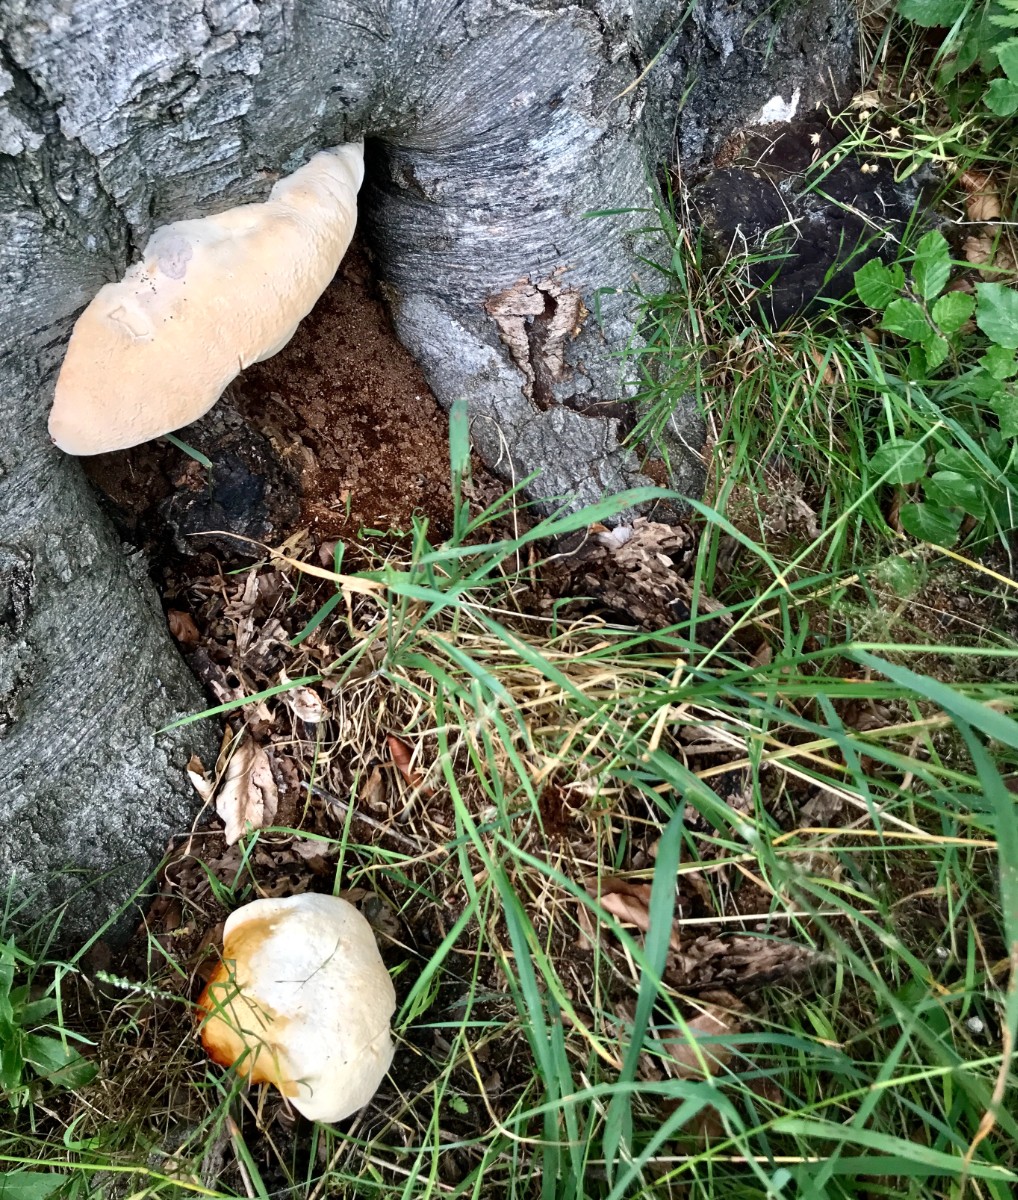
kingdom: Fungi
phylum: Basidiomycota
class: Agaricomycetes
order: Polyporales
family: Polyporaceae
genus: Ganoderma
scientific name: Ganoderma resinaceum
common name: gyldenbrun lakporesvamp
